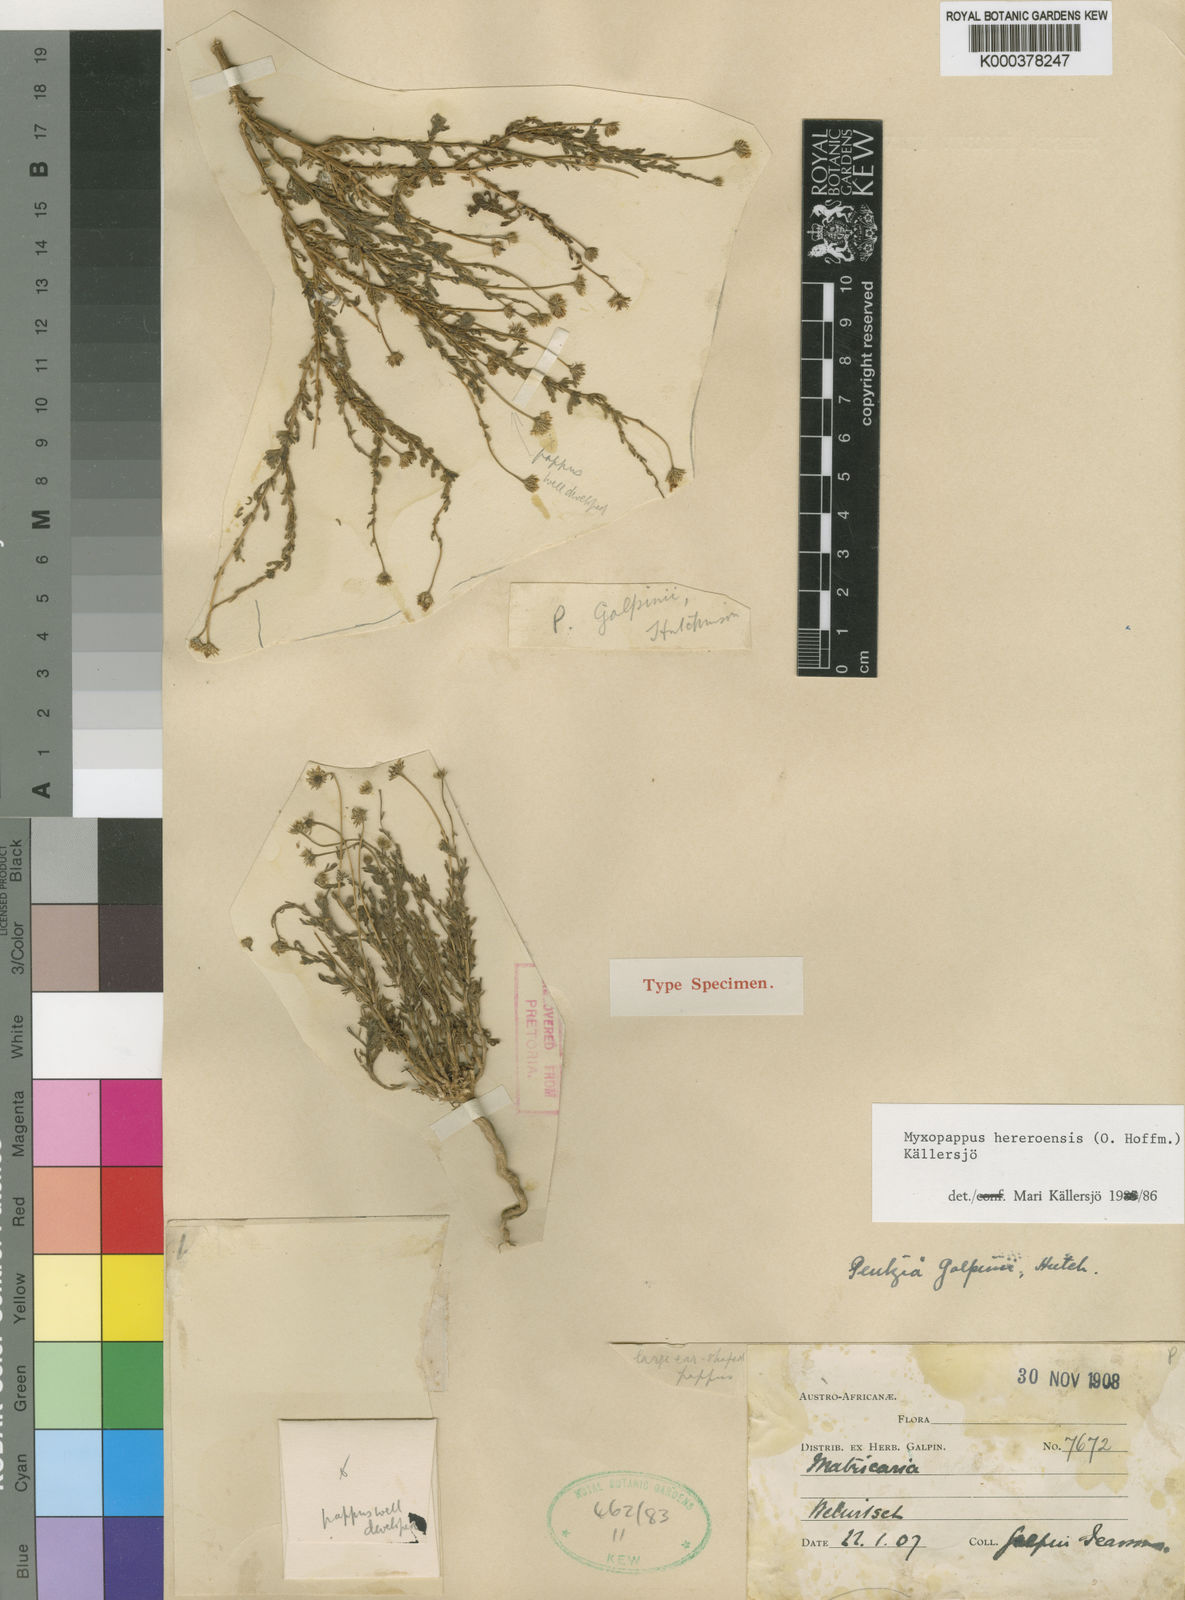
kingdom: Plantae
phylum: Tracheophyta
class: Magnoliopsida
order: Asterales
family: Asteraceae
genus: Myxopappus
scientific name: Myxopappus
